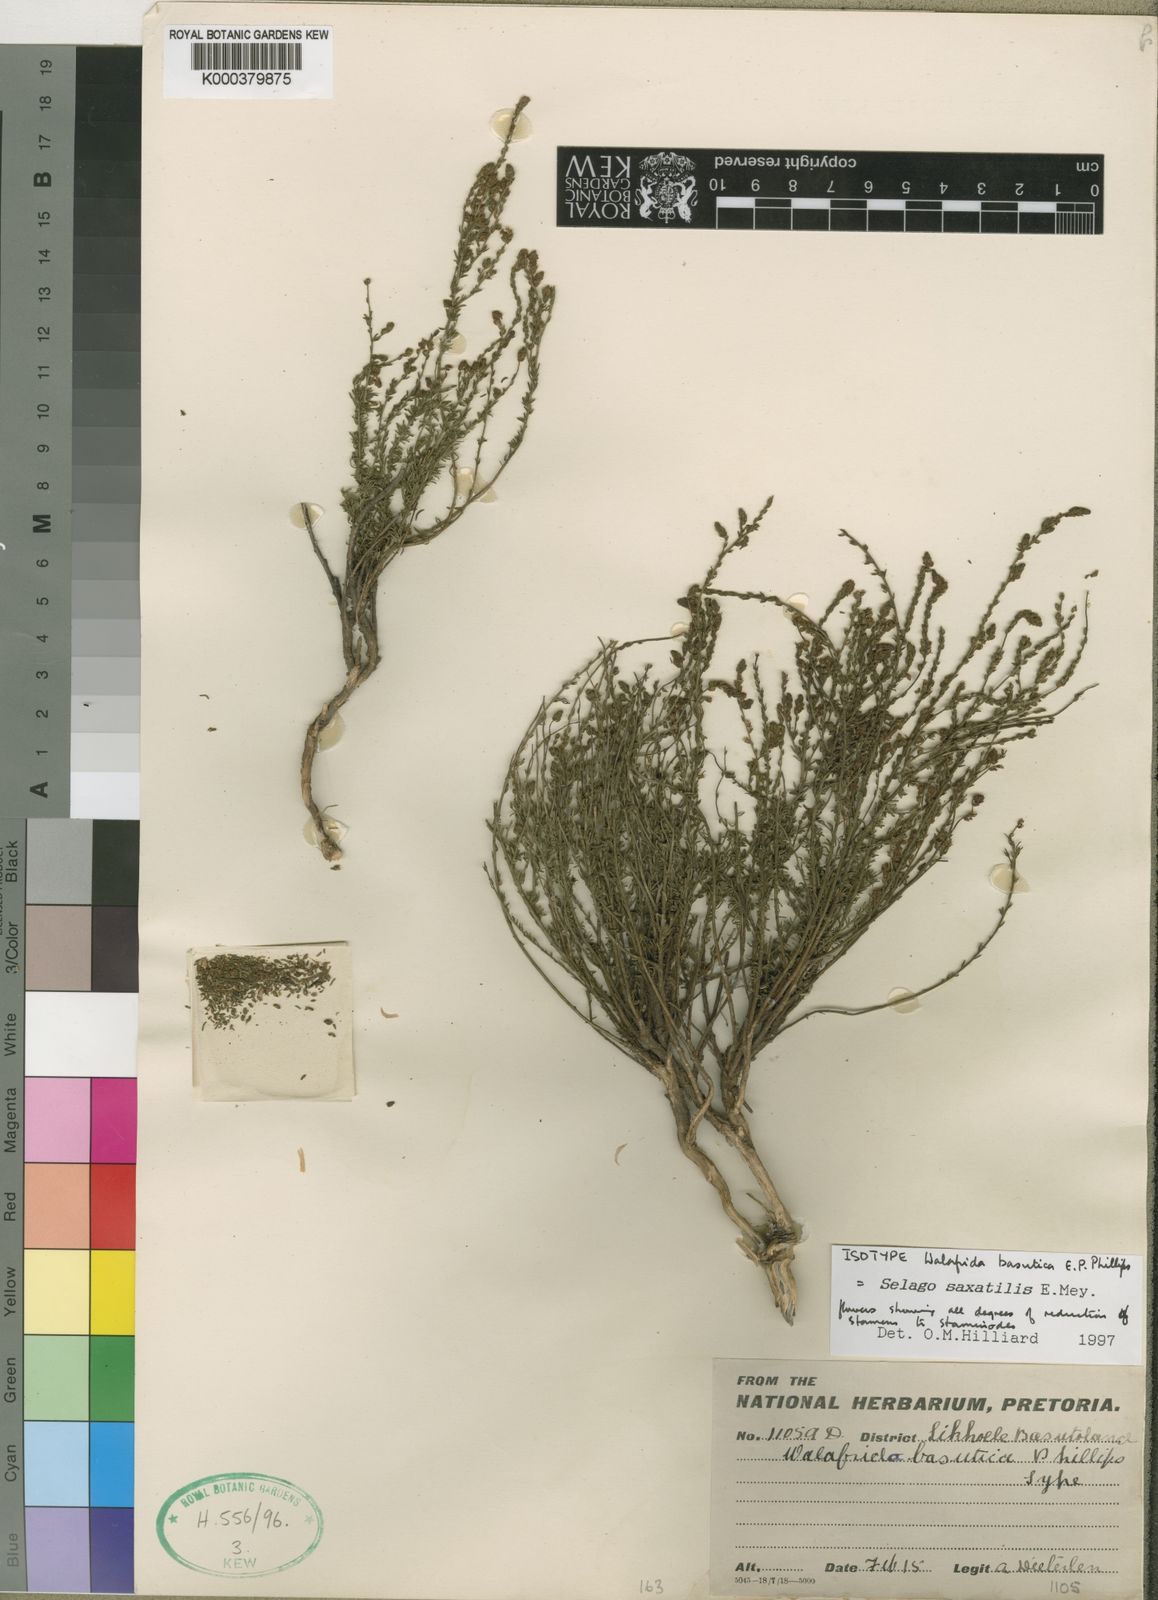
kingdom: Plantae
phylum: Tracheophyta
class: Magnoliopsida
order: Lamiales
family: Scrophulariaceae
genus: Selago
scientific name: Selago saxatilis
